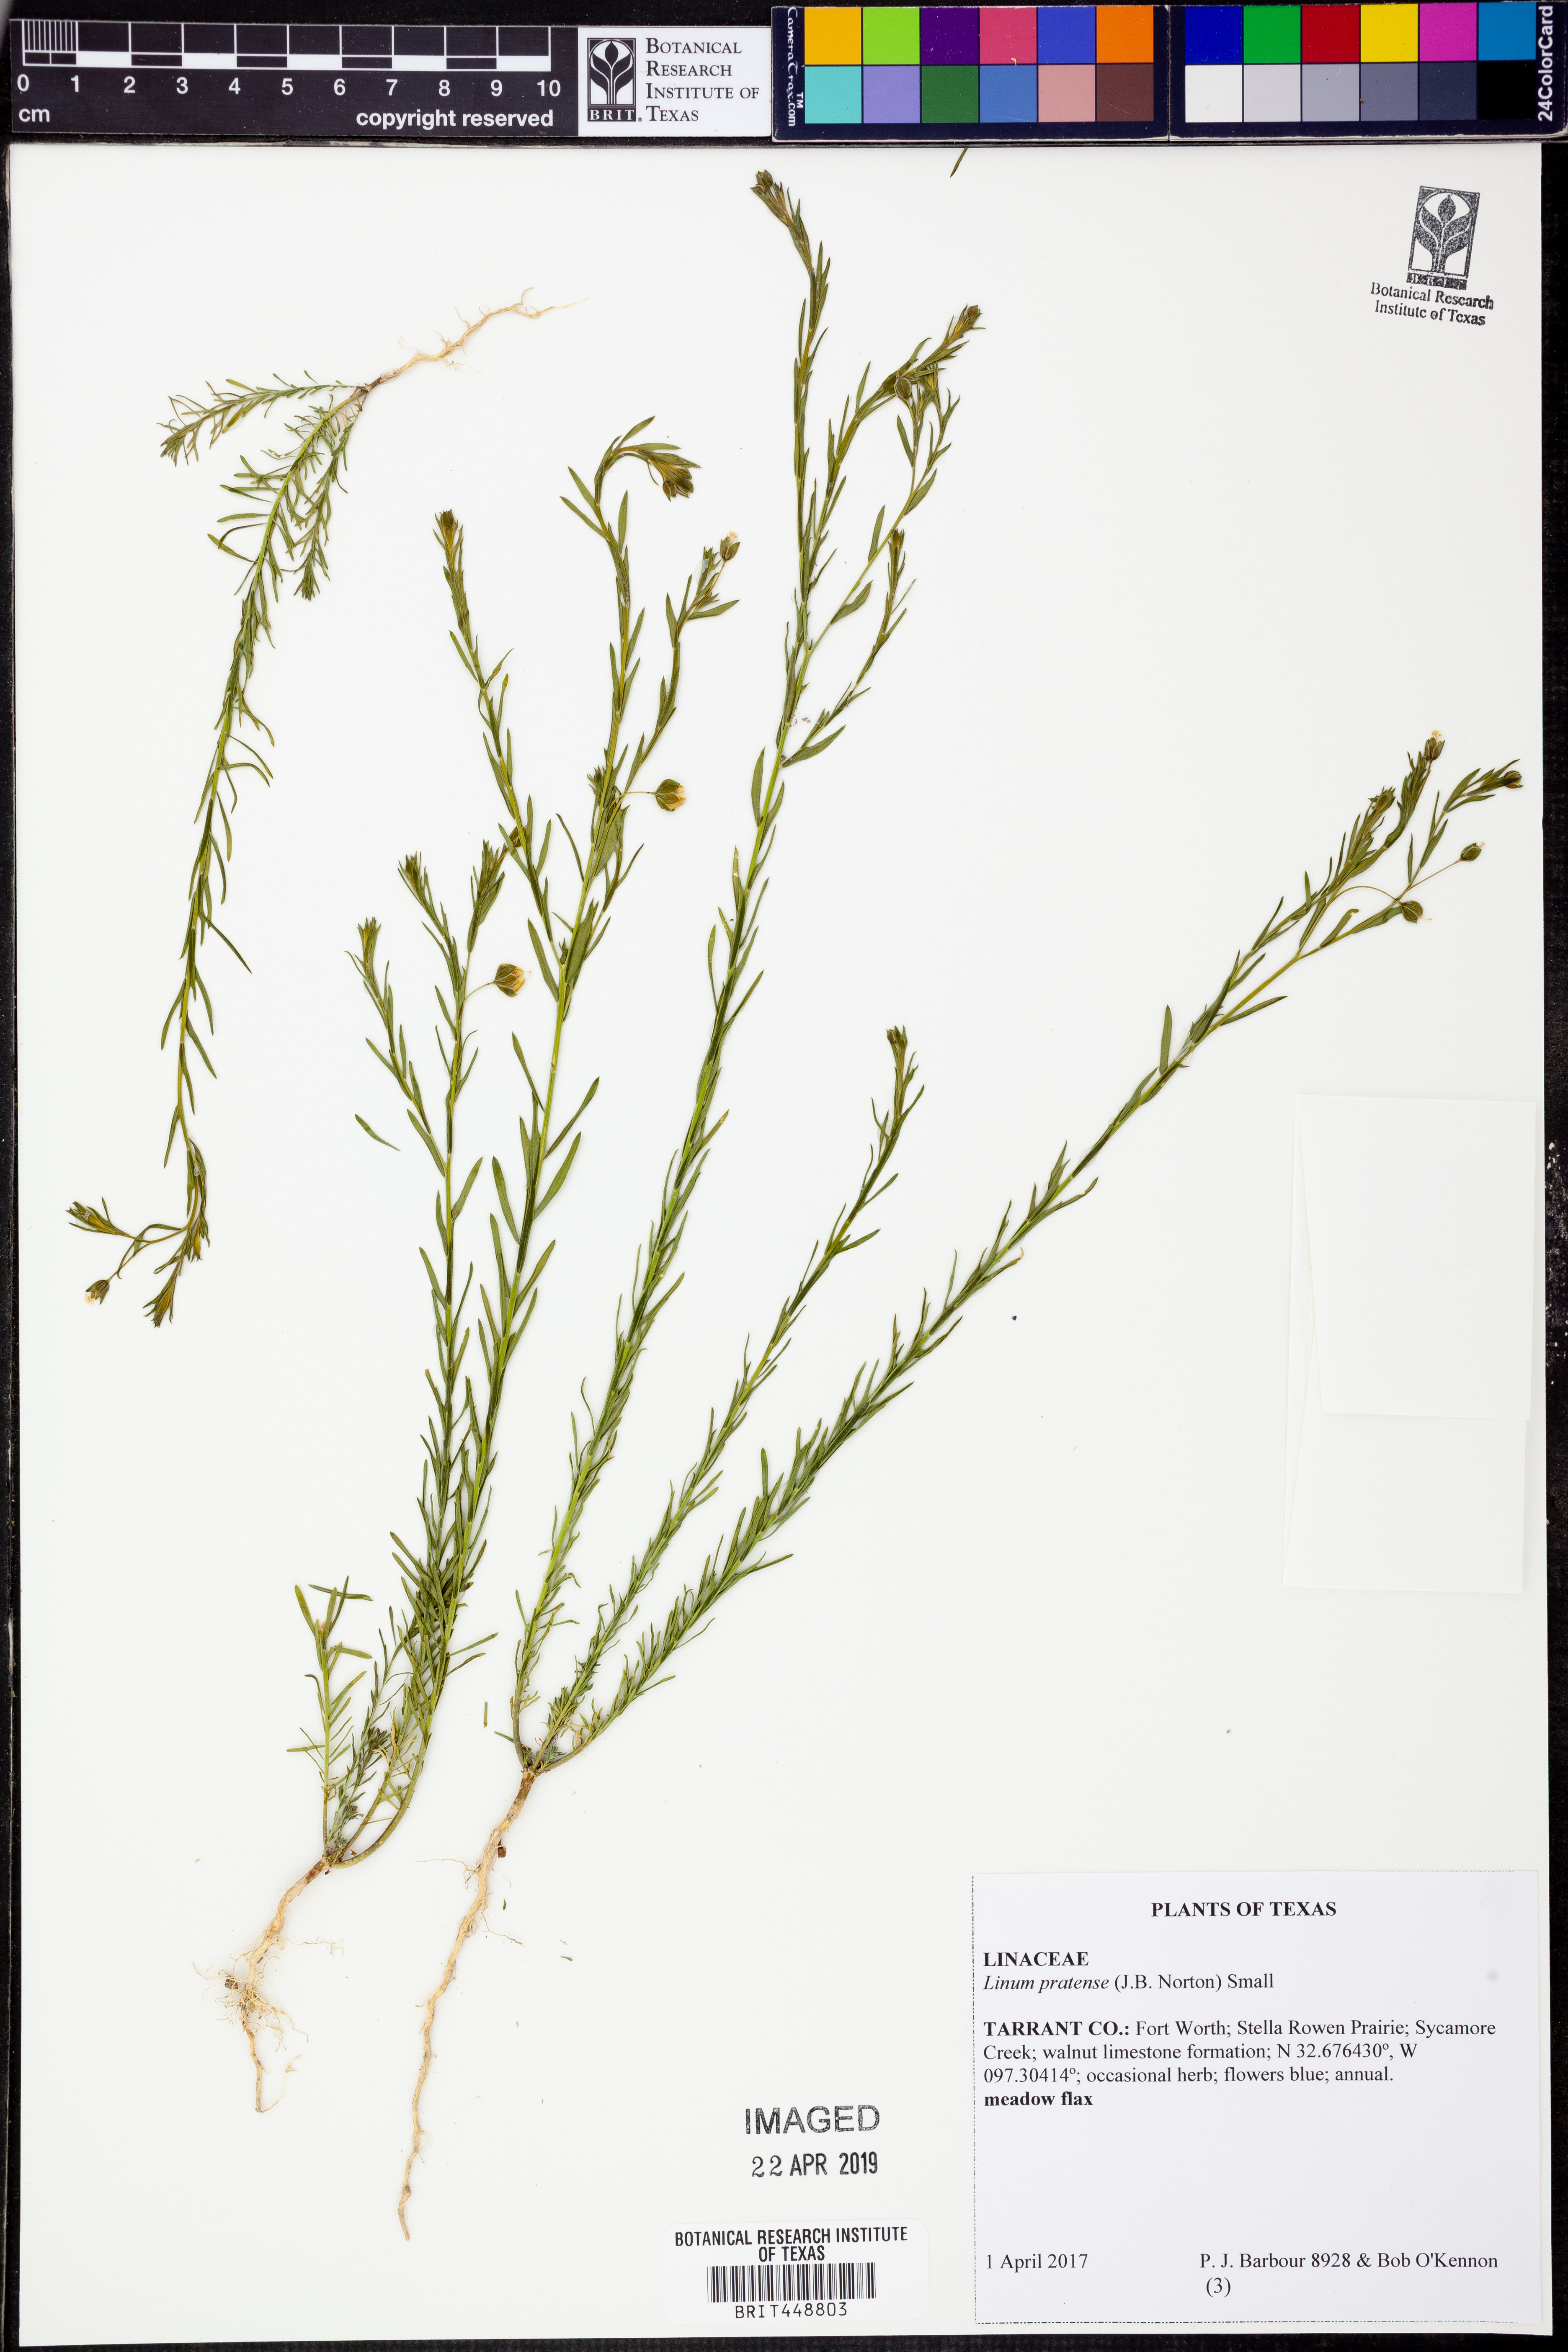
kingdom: Plantae
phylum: Tracheophyta
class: Magnoliopsida
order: Malpighiales
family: Linaceae
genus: Linum
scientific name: Linum pratense
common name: Norton's flax
